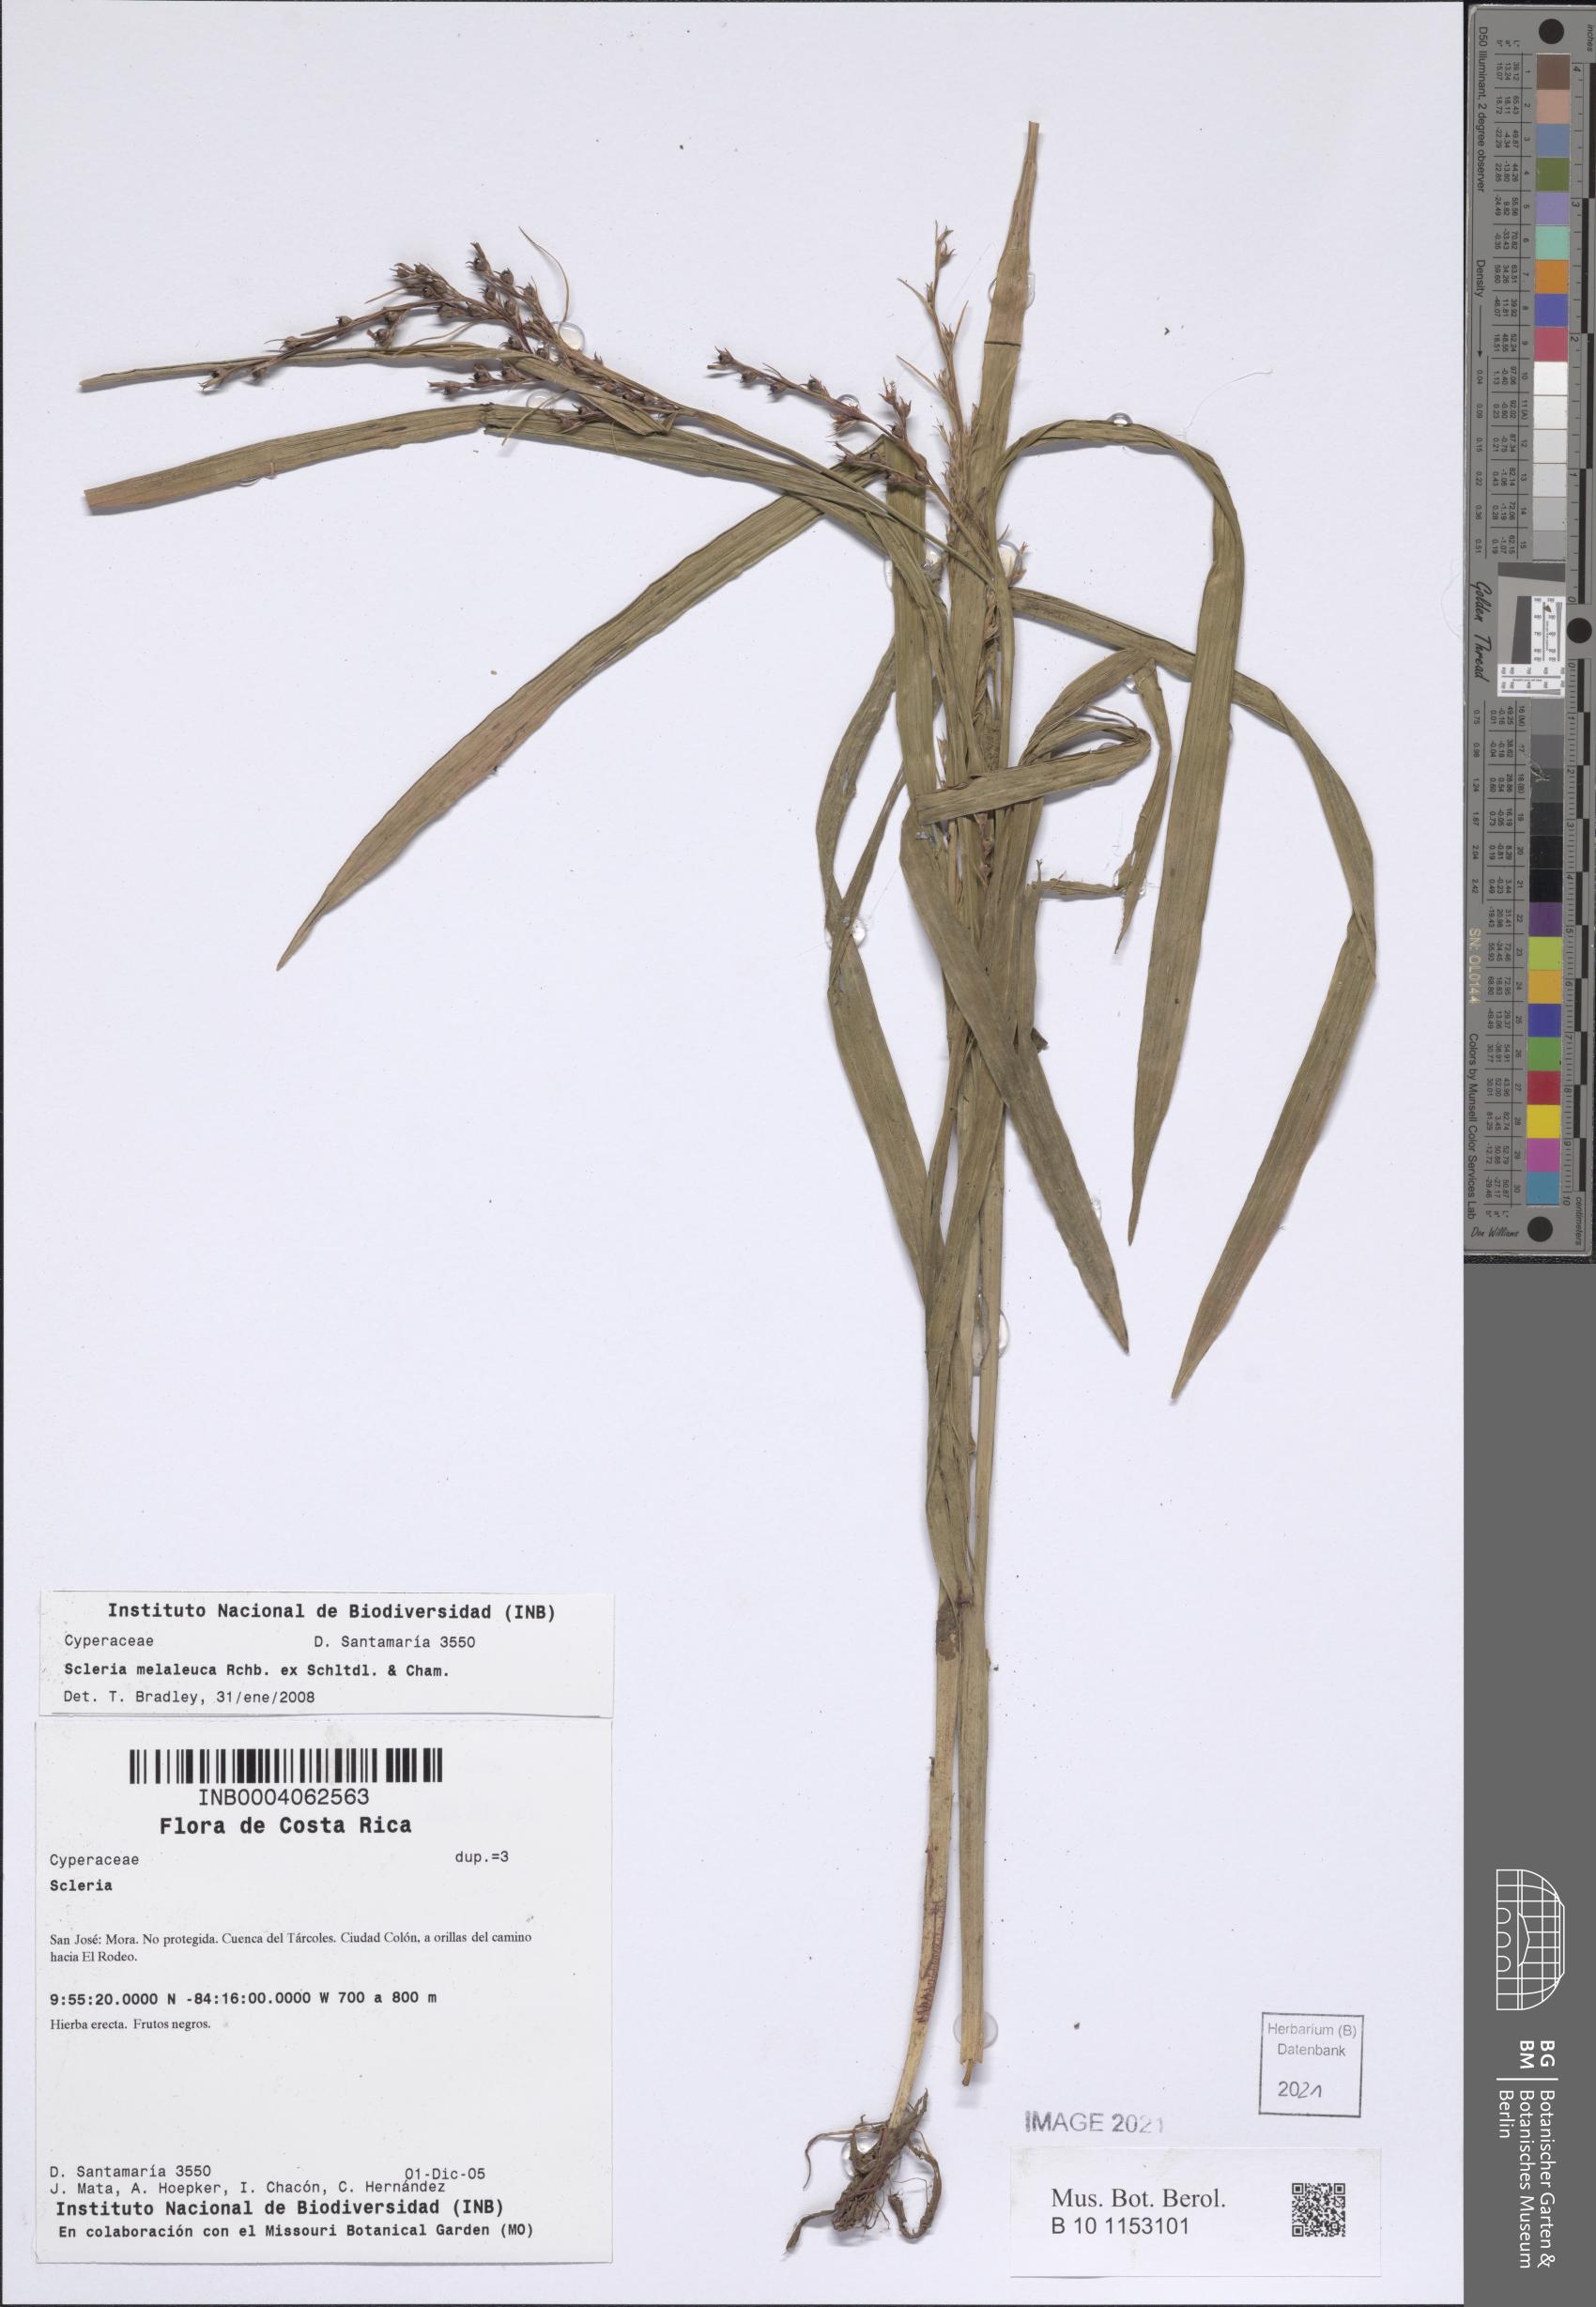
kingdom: Plantae
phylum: Tracheophyta
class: Liliopsida
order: Poales
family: Cyperaceae
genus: Scleria
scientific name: Scleria gaertneri
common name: Cortadera blanca
